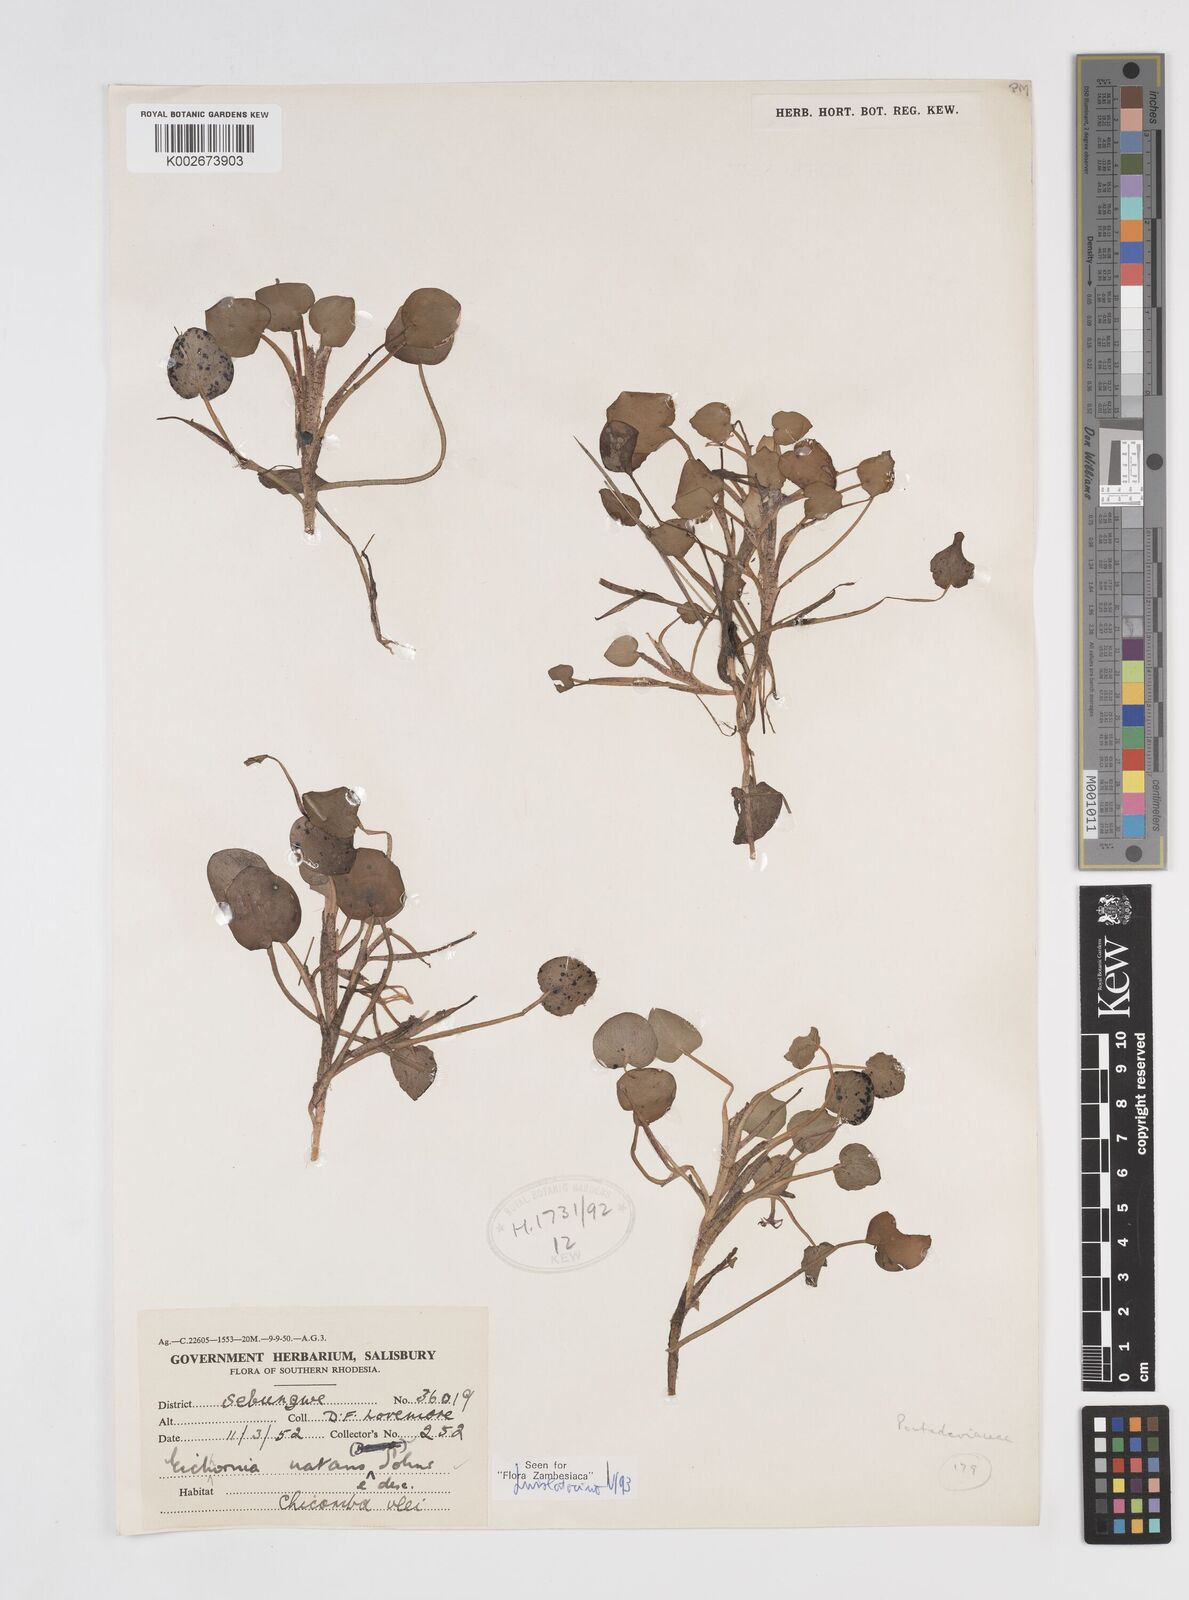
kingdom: Plantae
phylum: Tracheophyta
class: Liliopsida
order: Commelinales
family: Pontederiaceae
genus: Pontederia
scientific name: Pontederia diversifolia
